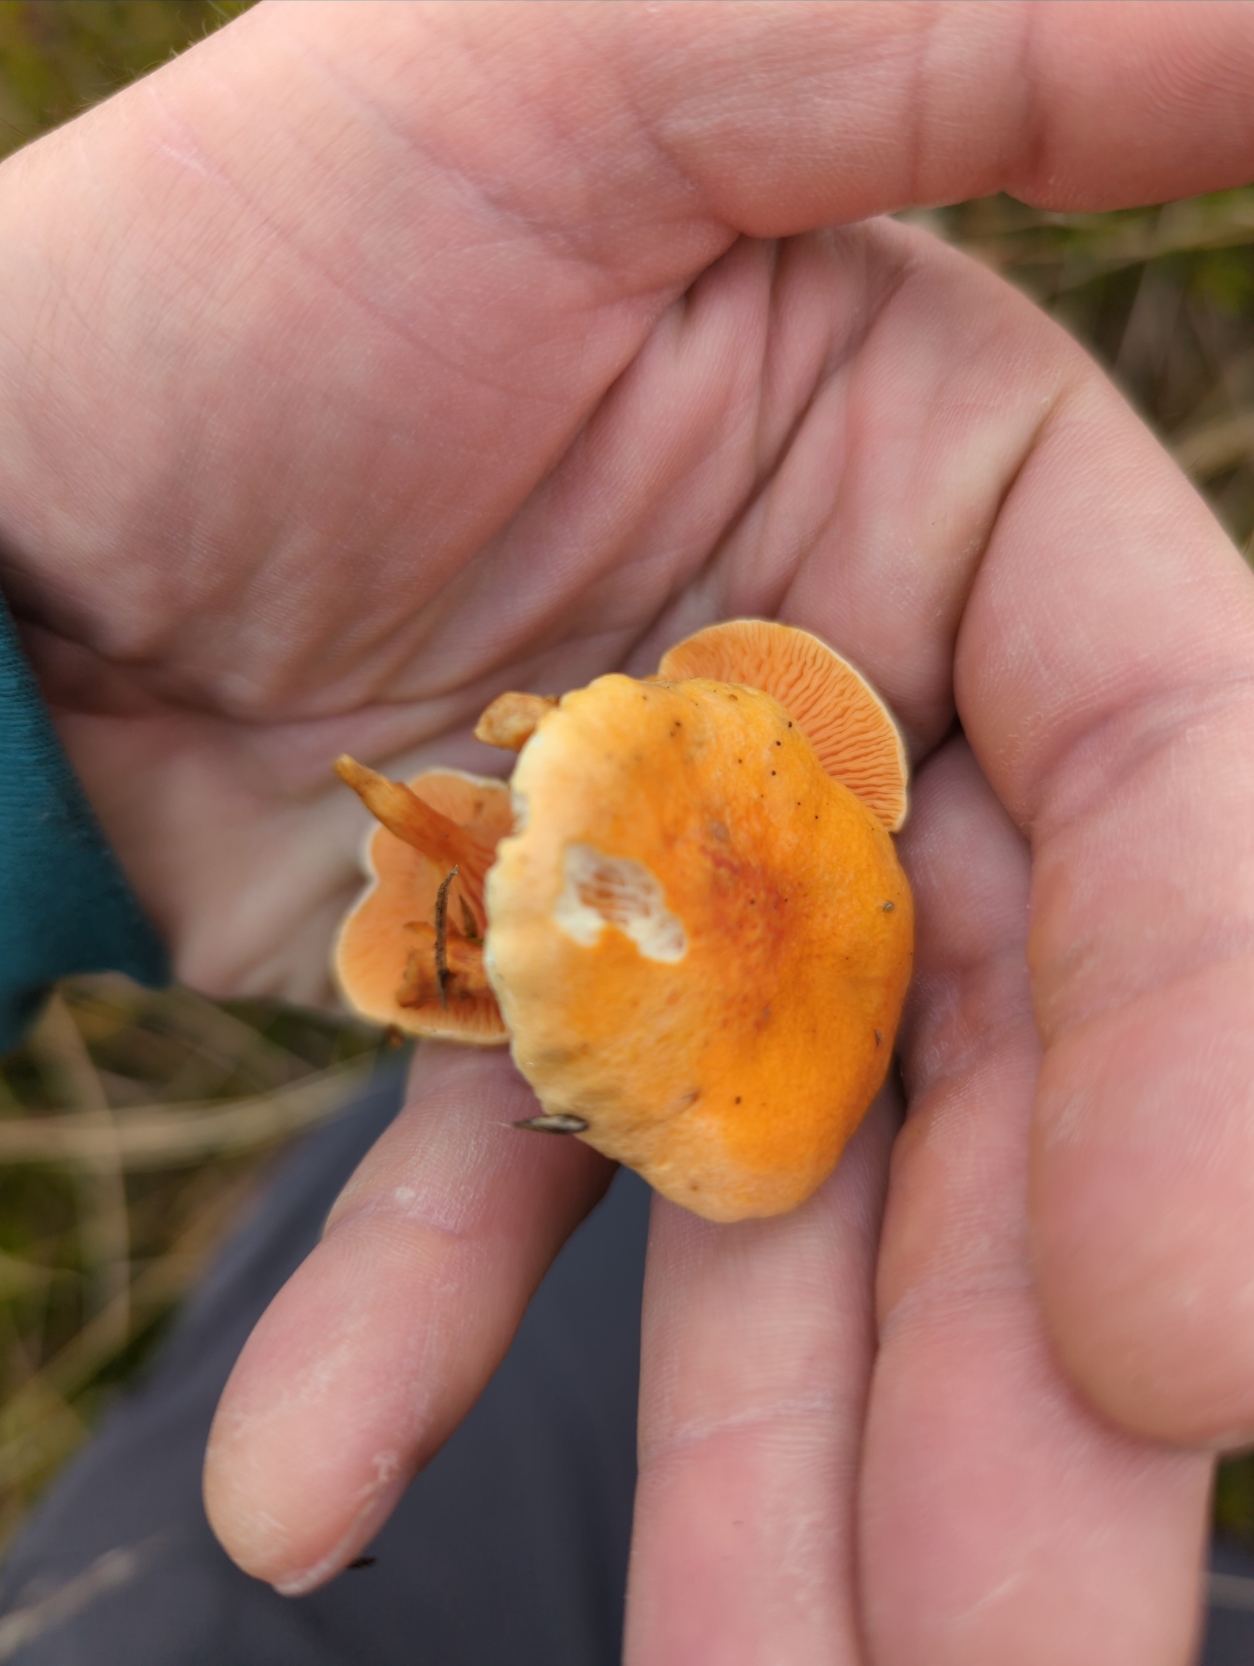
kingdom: Fungi
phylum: Basidiomycota
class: Agaricomycetes
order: Boletales
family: Hygrophoropsidaceae
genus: Hygrophoropsis
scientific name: Hygrophoropsis aurantiaca
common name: Almindelig orangekantarel
